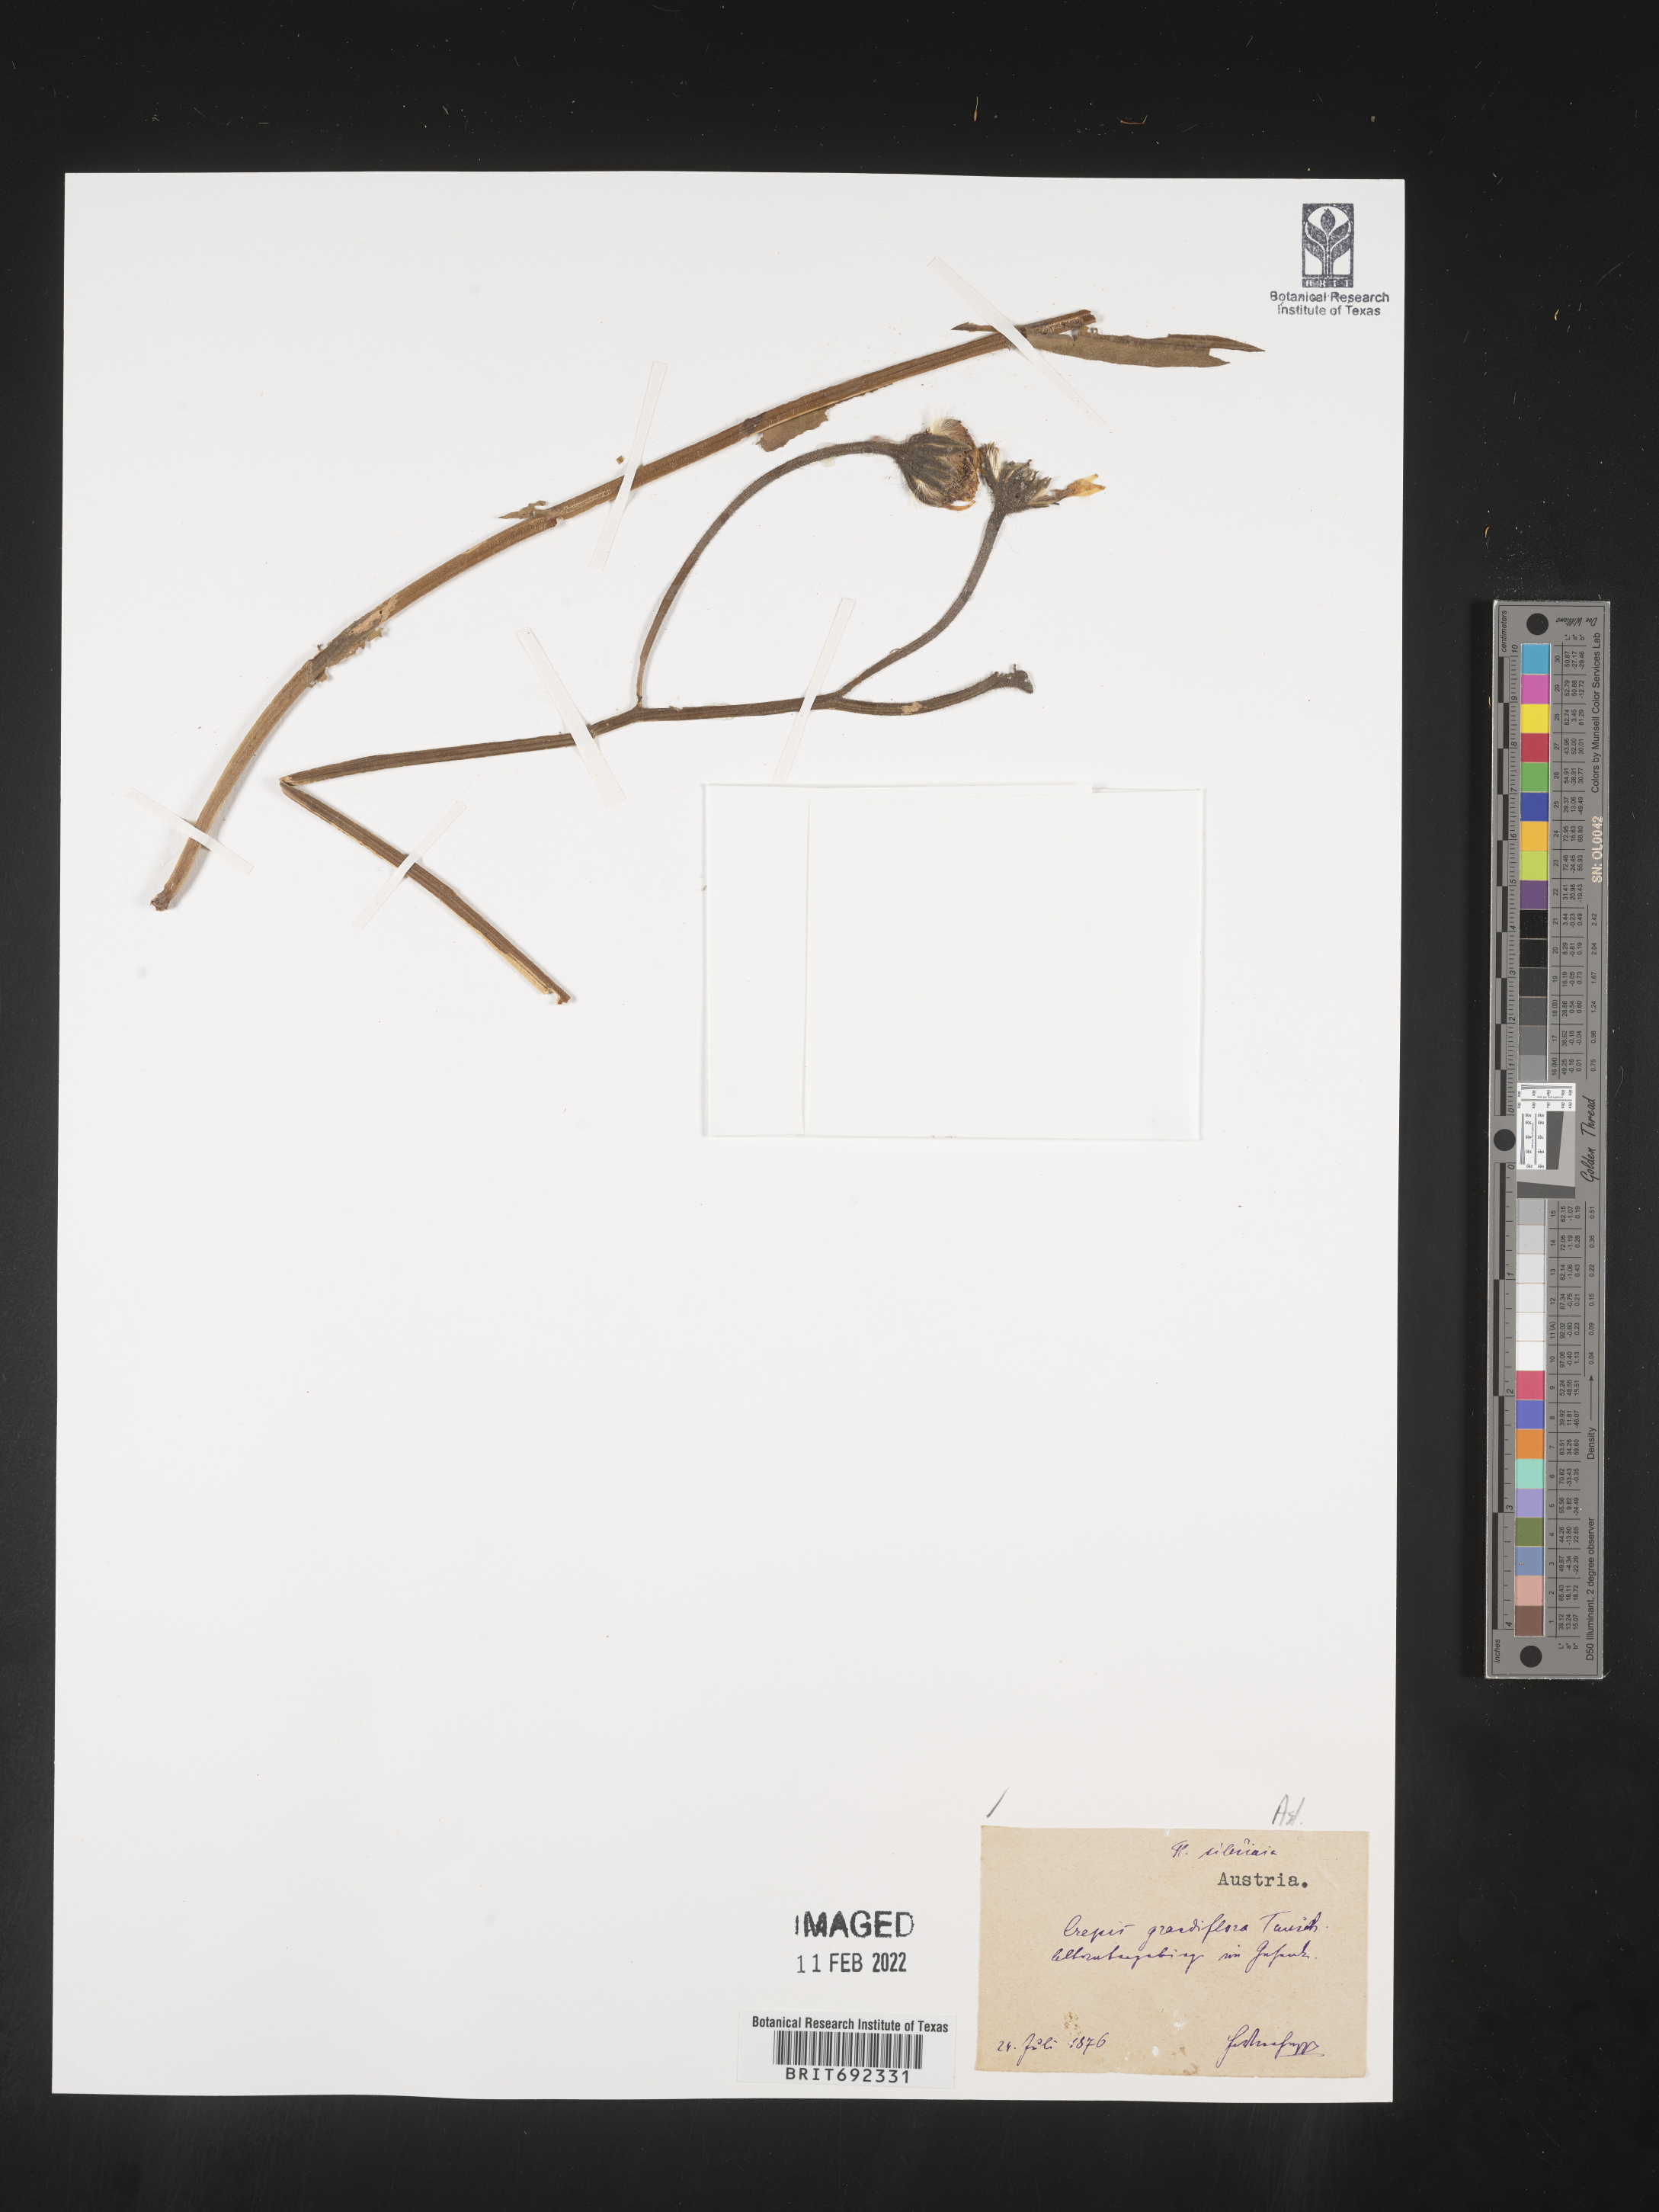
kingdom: Plantae
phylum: Tracheophyta
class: Magnoliopsida
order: Asterales
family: Asteraceae
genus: Crepis
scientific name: Crepis
